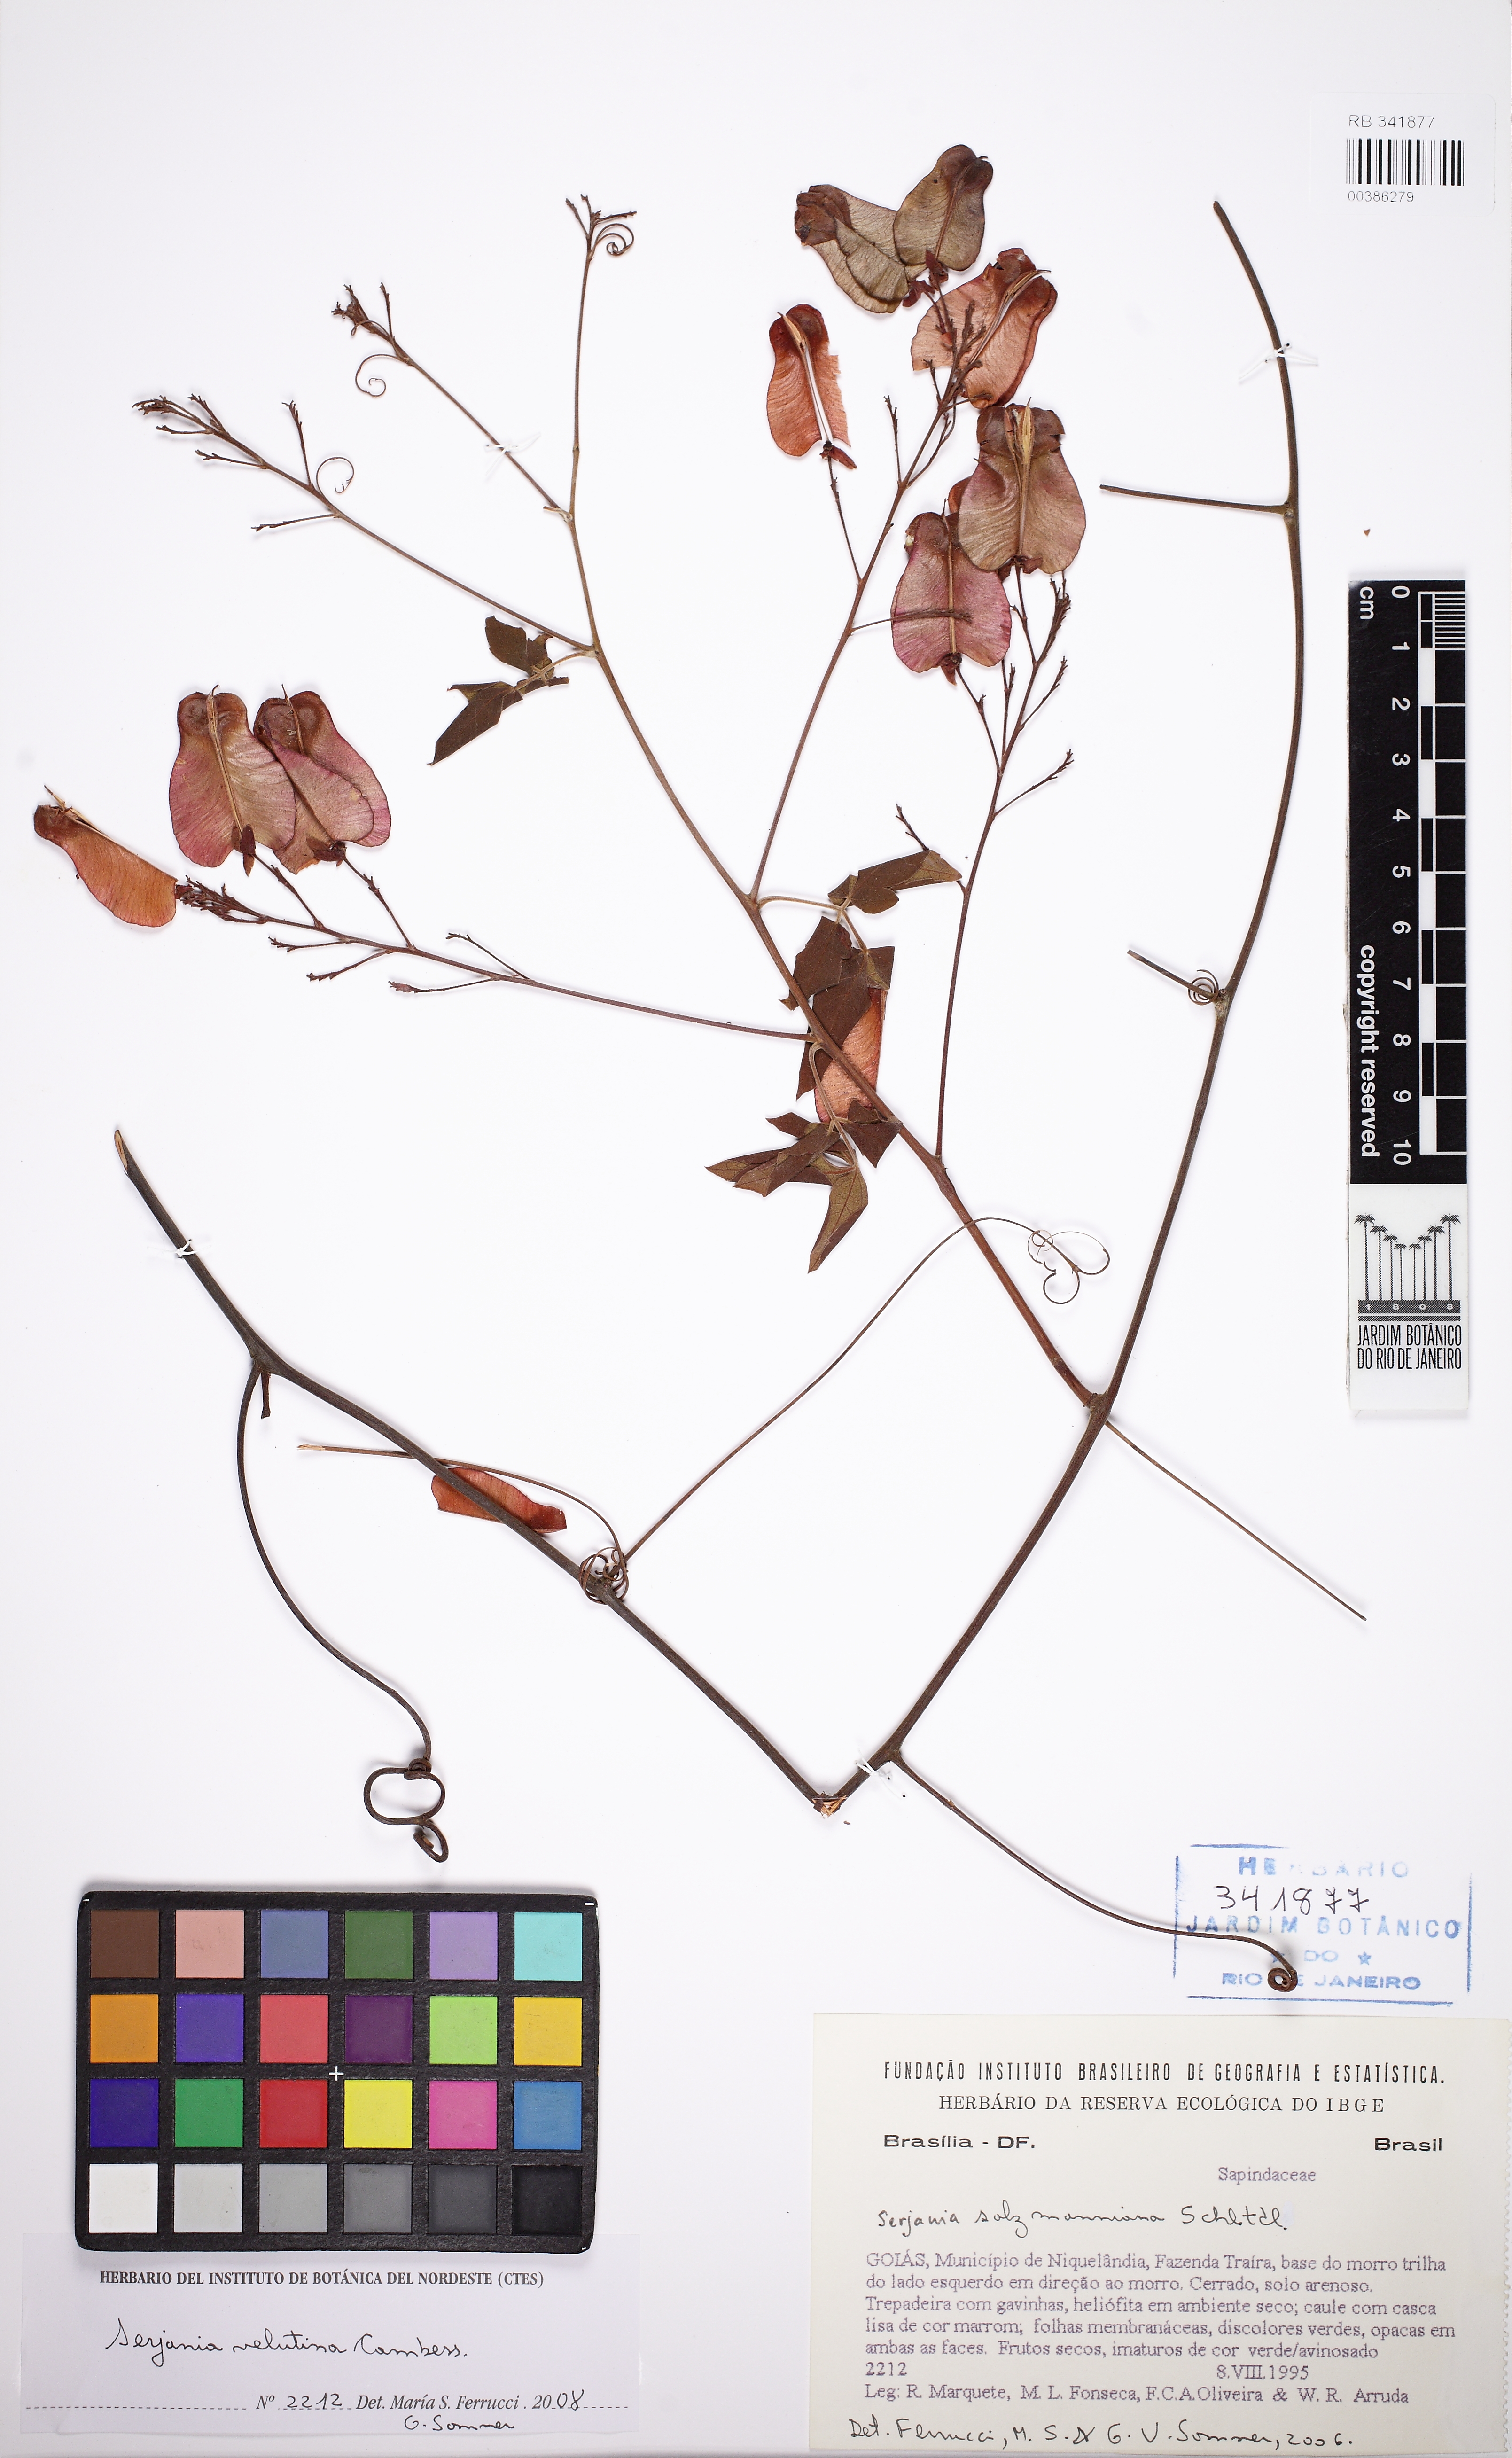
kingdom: Plantae
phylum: Tracheophyta
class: Magnoliopsida
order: Sapindales
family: Sapindaceae
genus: Serjania
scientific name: Serjania velutina
